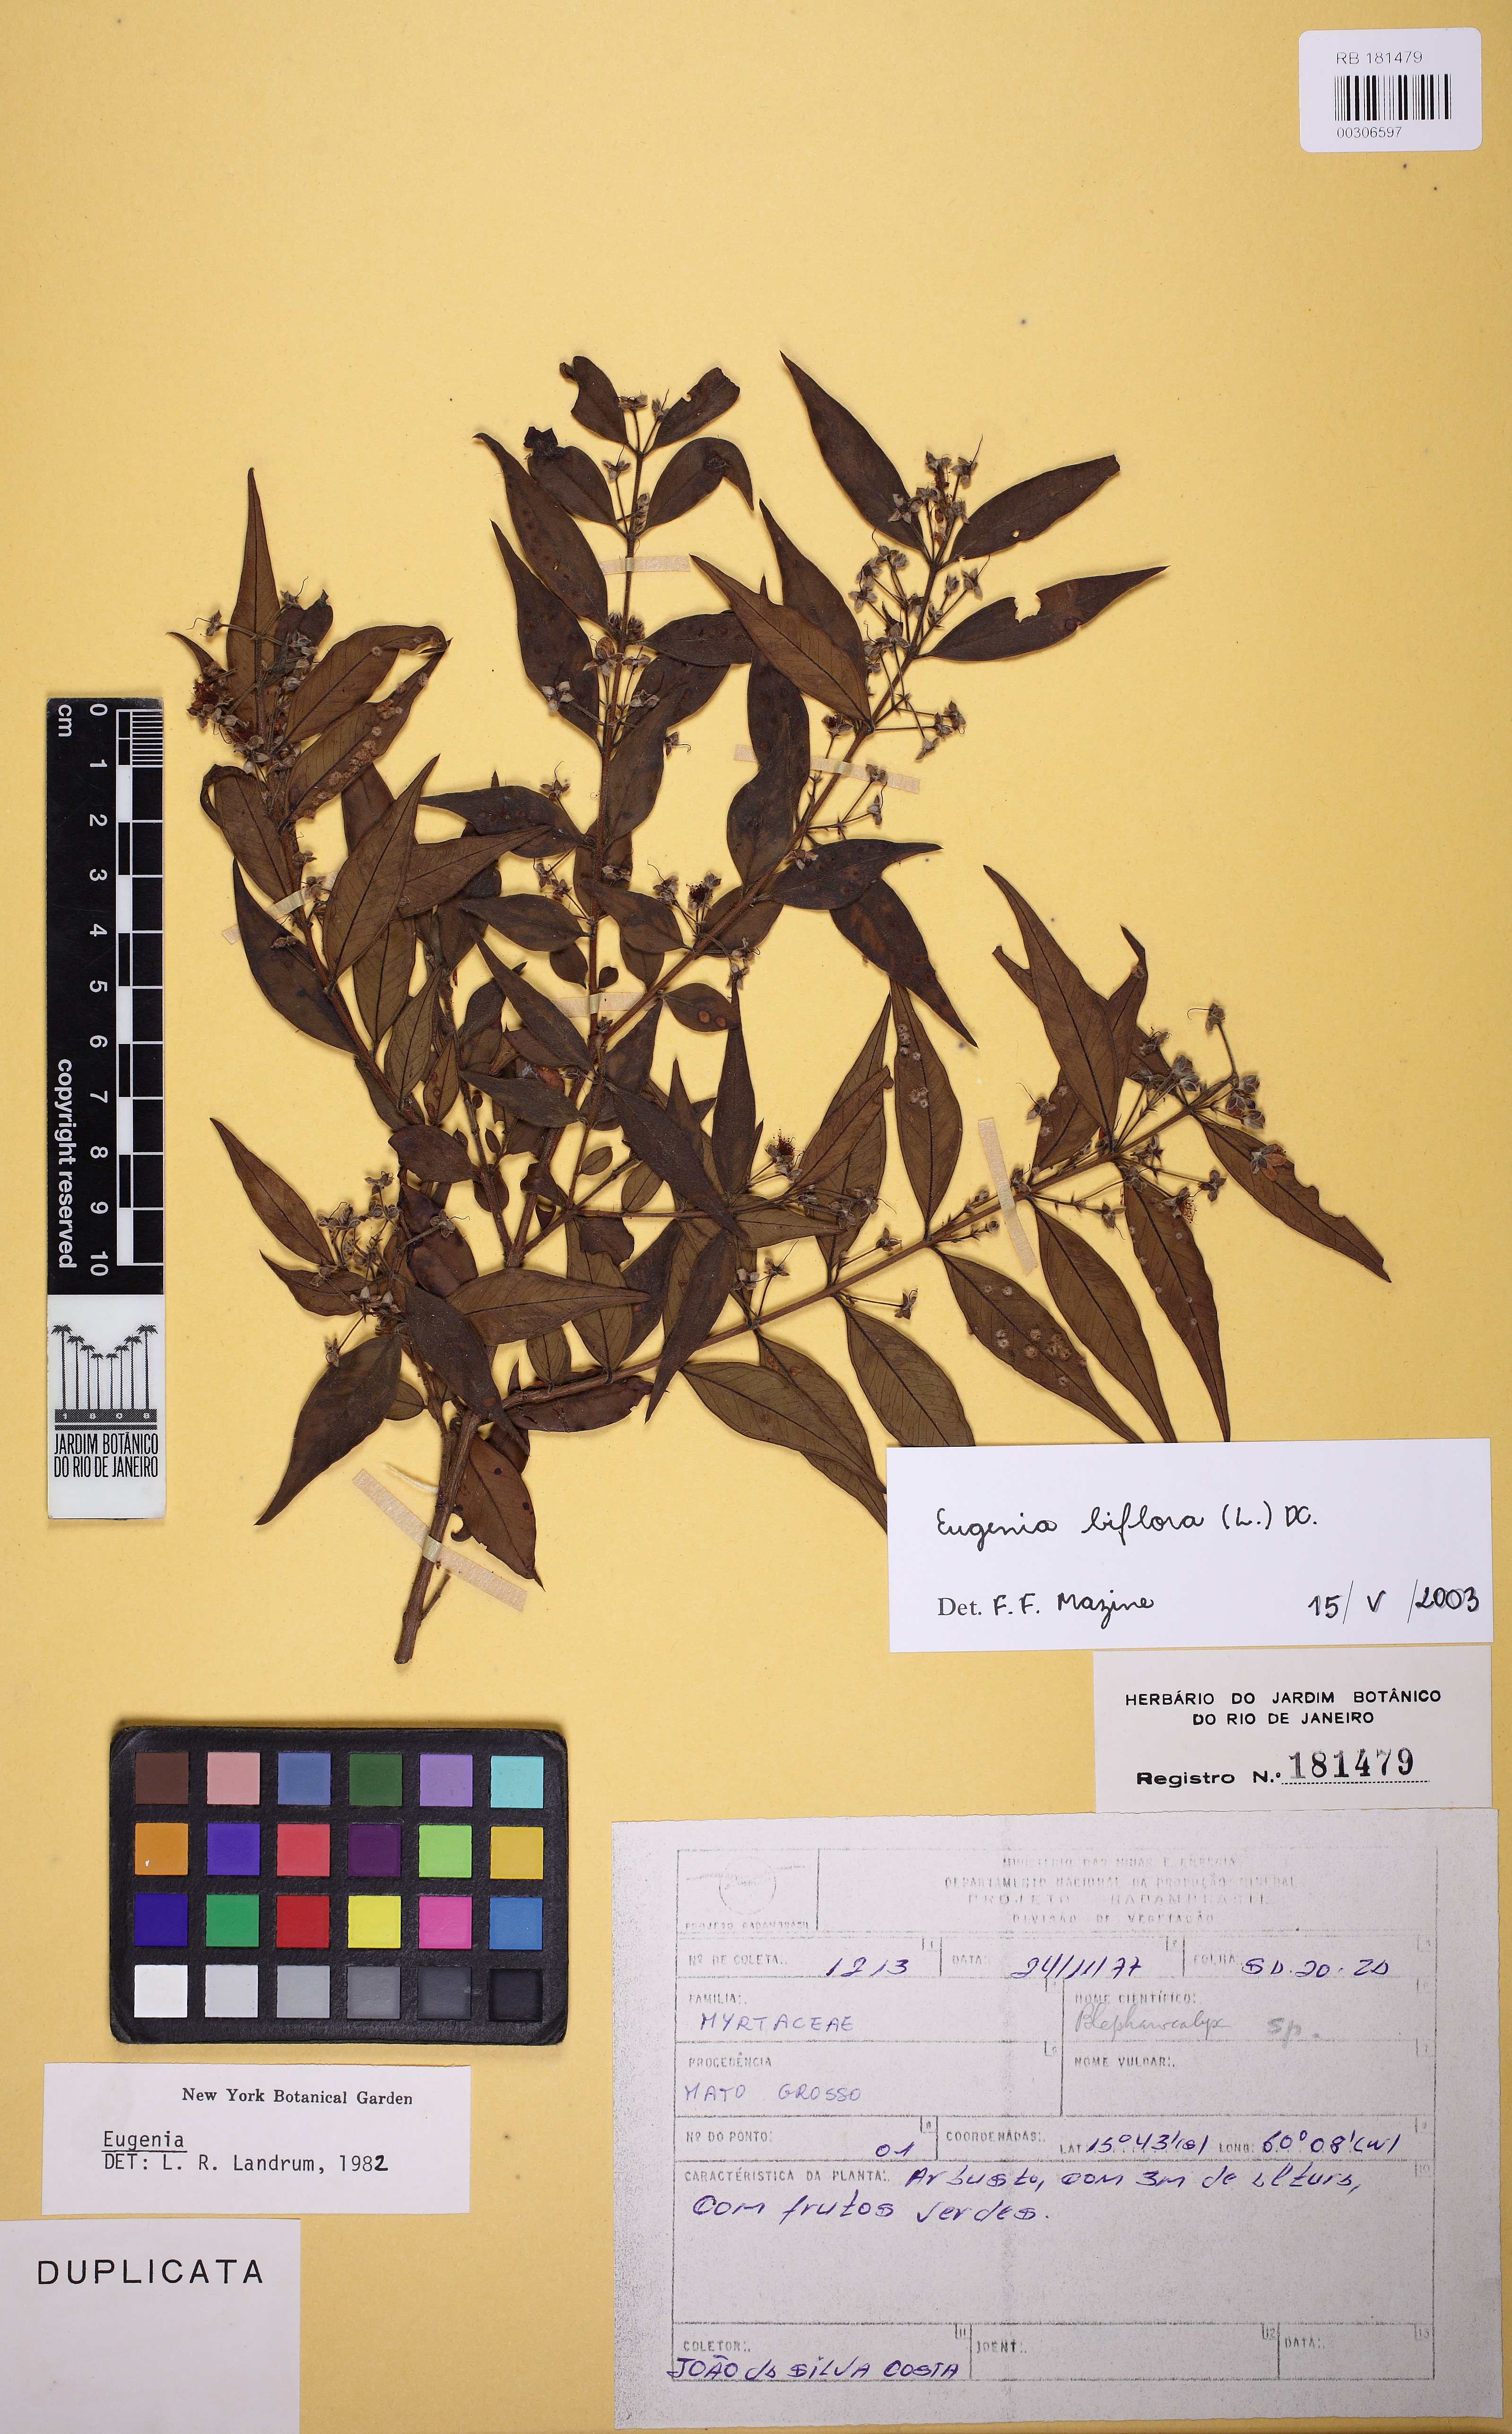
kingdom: Plantae
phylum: Tracheophyta
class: Magnoliopsida
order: Myrtales
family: Myrtaceae
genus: Eugenia
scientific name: Eugenia biflora
